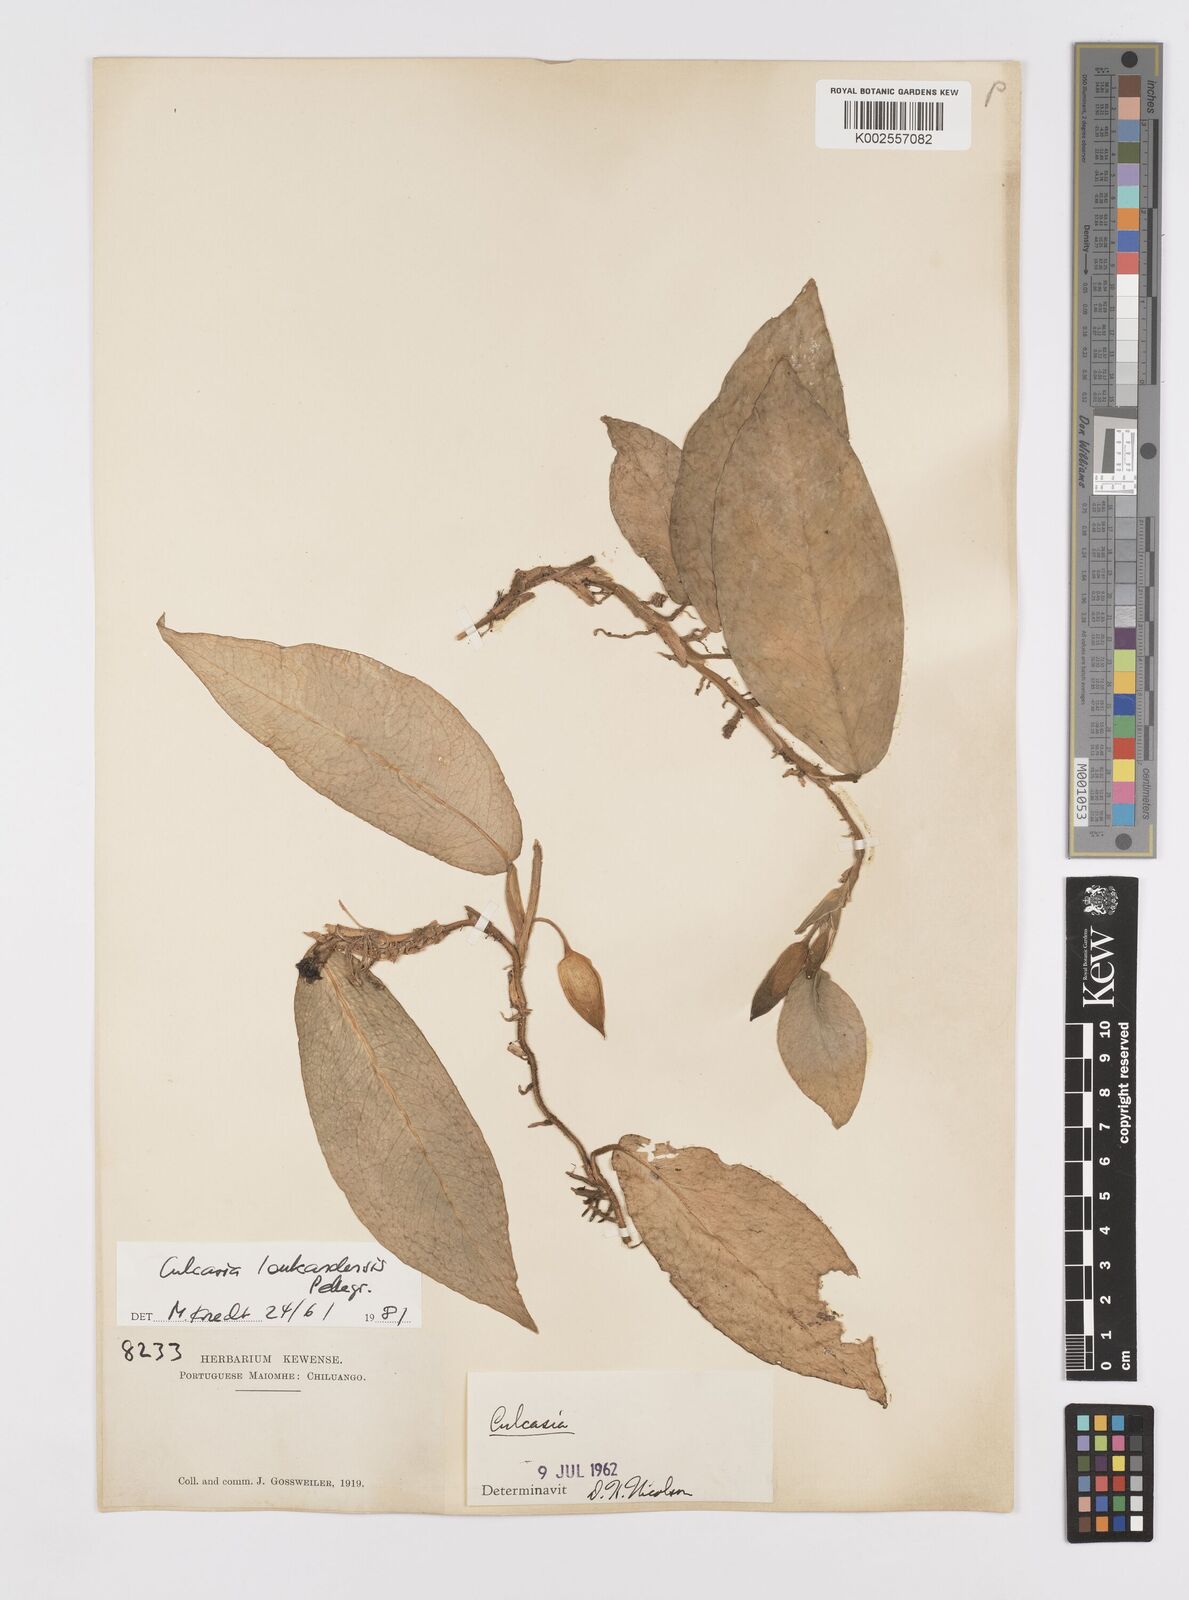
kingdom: Plantae
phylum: Tracheophyta
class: Liliopsida
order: Alismatales
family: Araceae
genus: Culcasia
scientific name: Culcasia loukandensis
